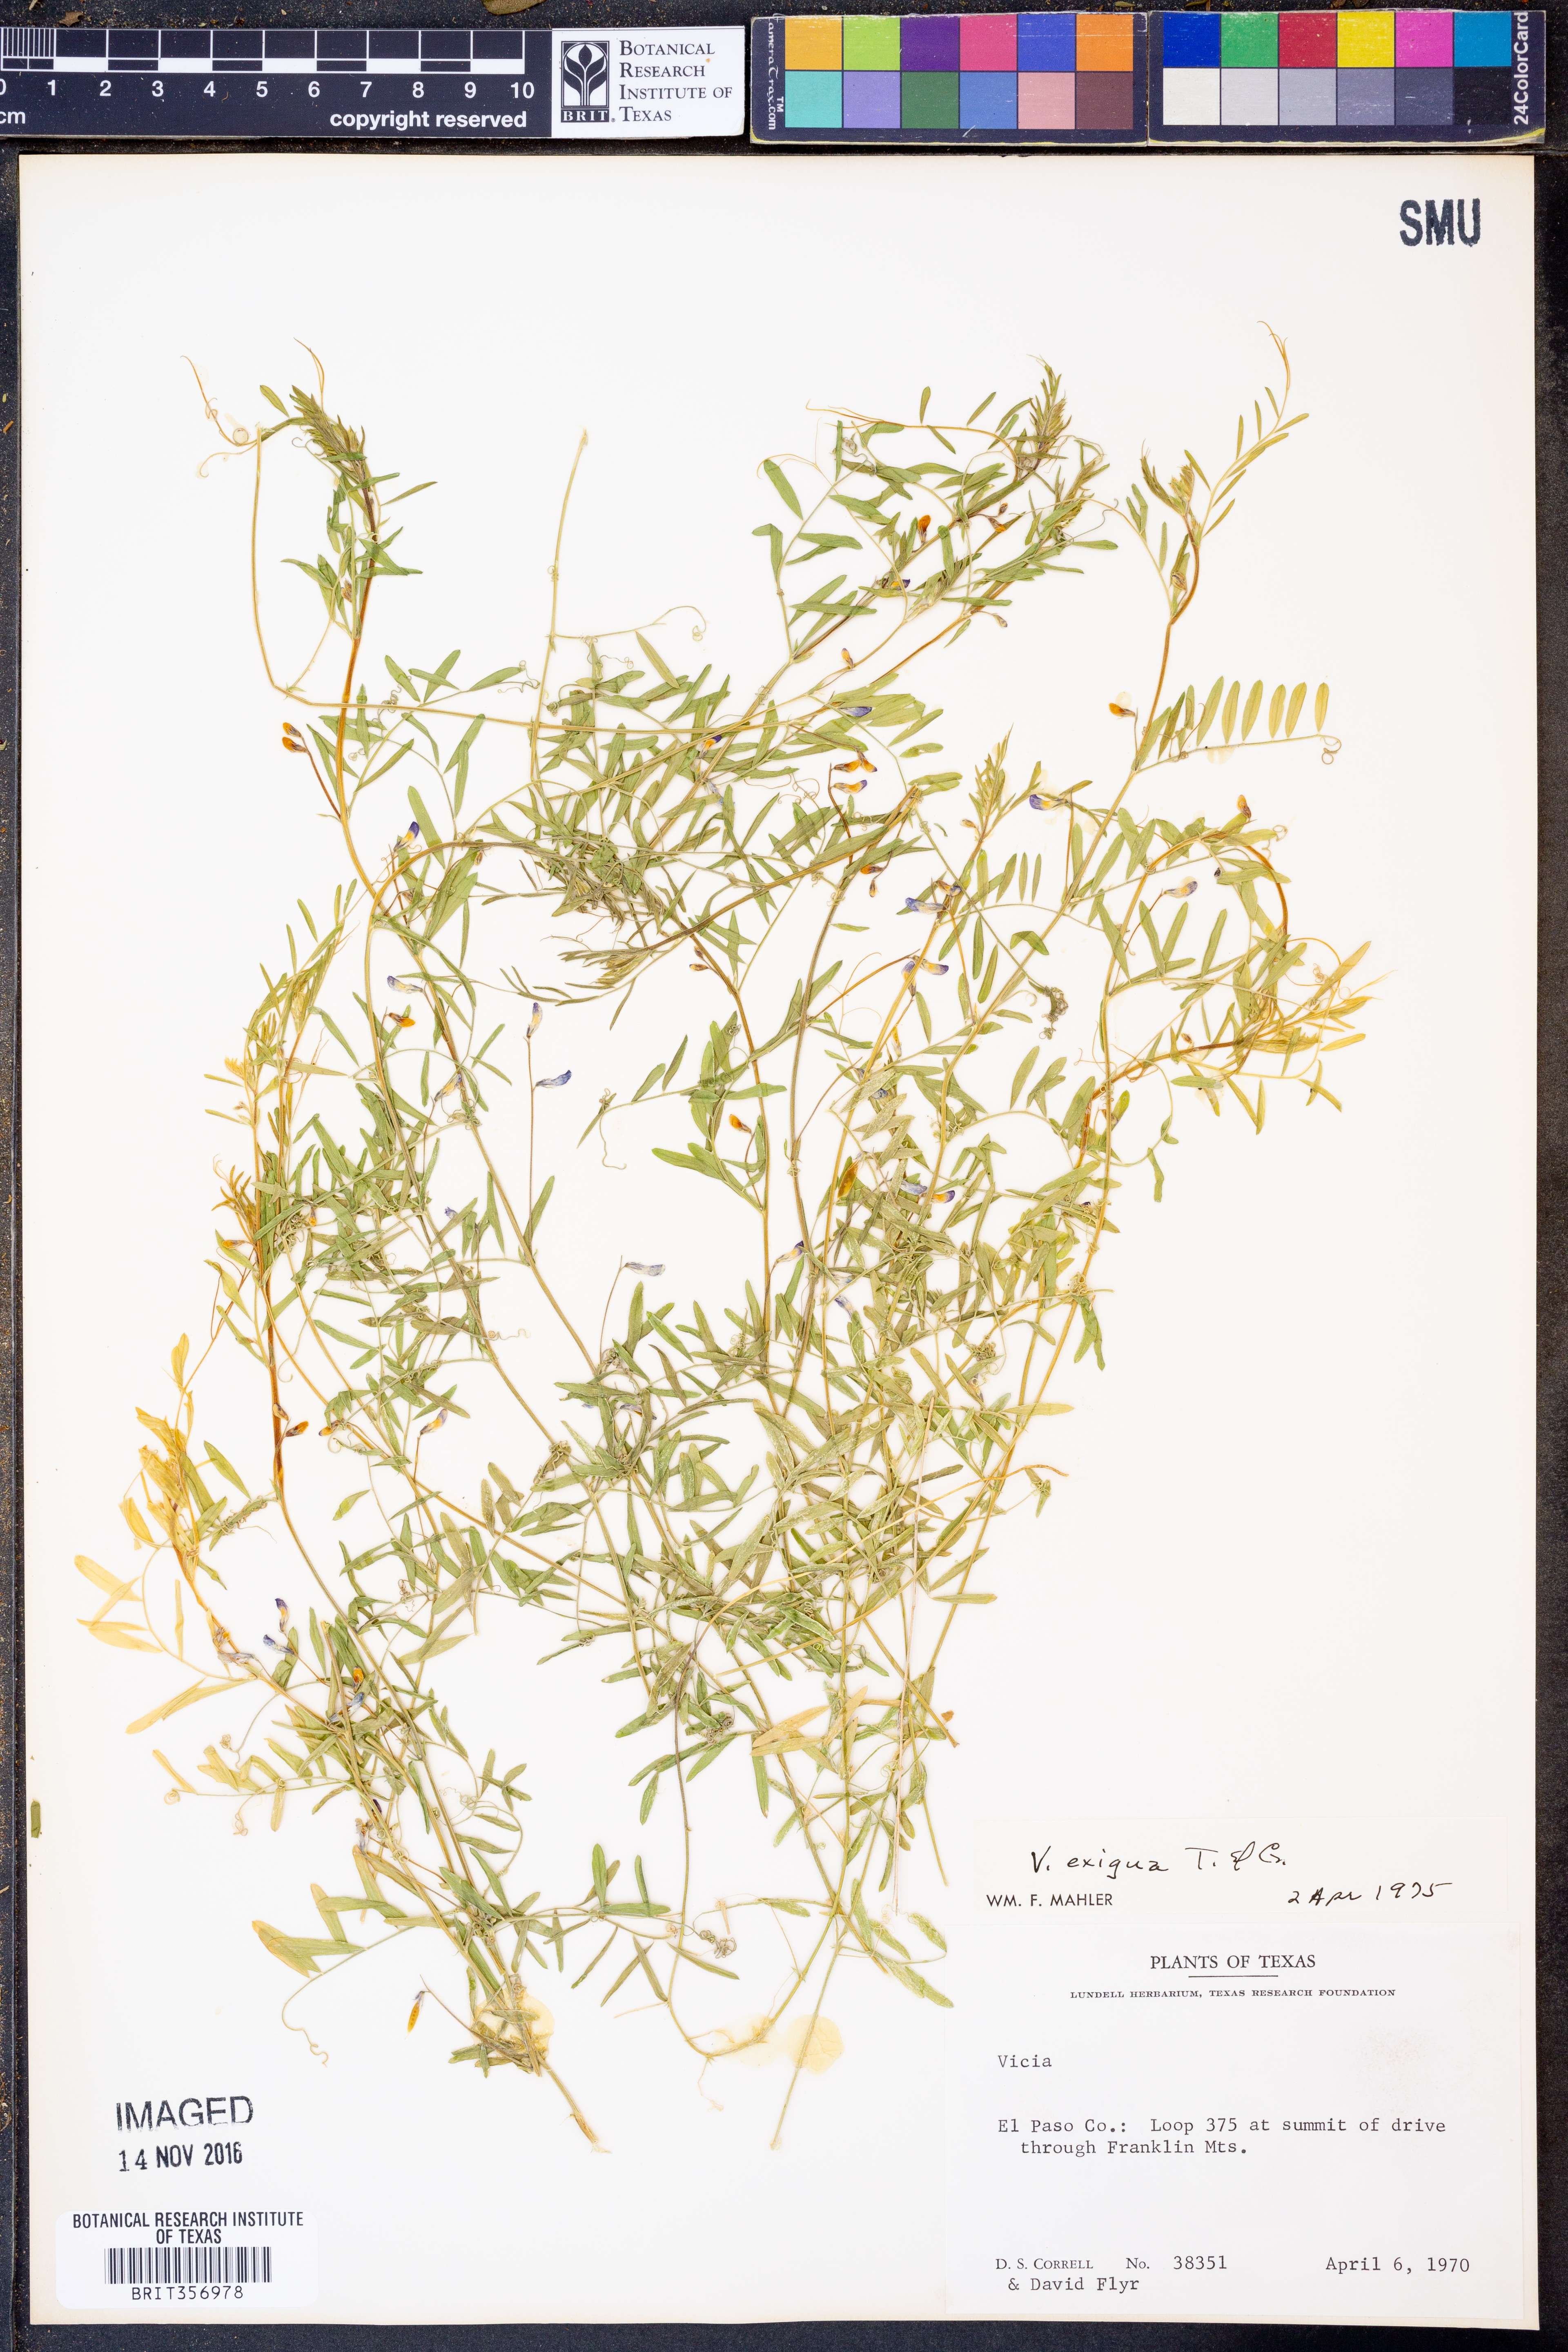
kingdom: Plantae
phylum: Tracheophyta
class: Magnoliopsida
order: Fabales
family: Fabaceae
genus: Vicia
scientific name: Vicia ludoviciana
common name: Louisiana vetch
